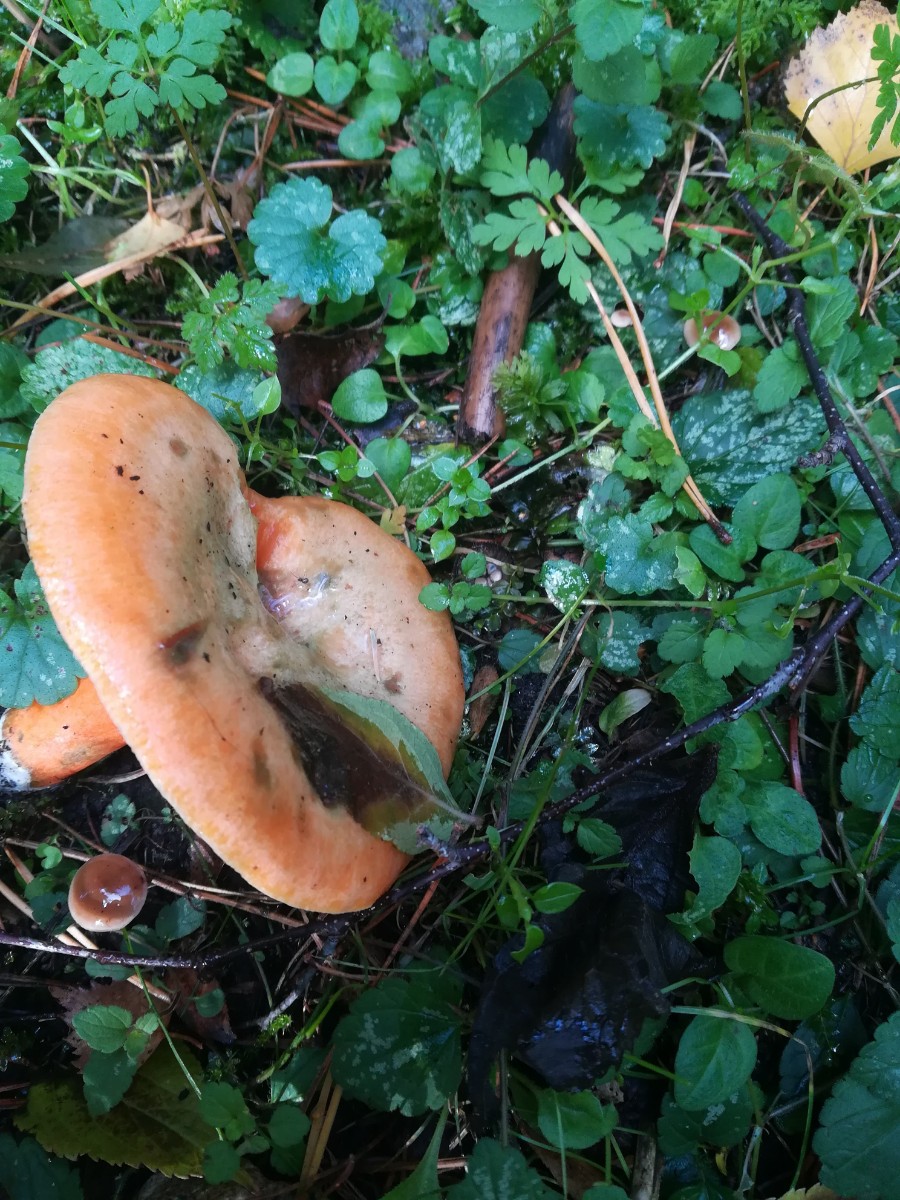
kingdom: Fungi
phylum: Basidiomycota
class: Agaricomycetes
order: Russulales
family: Russulaceae
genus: Lactarius
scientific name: Lactarius deterrimus
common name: gran-mælkehat
